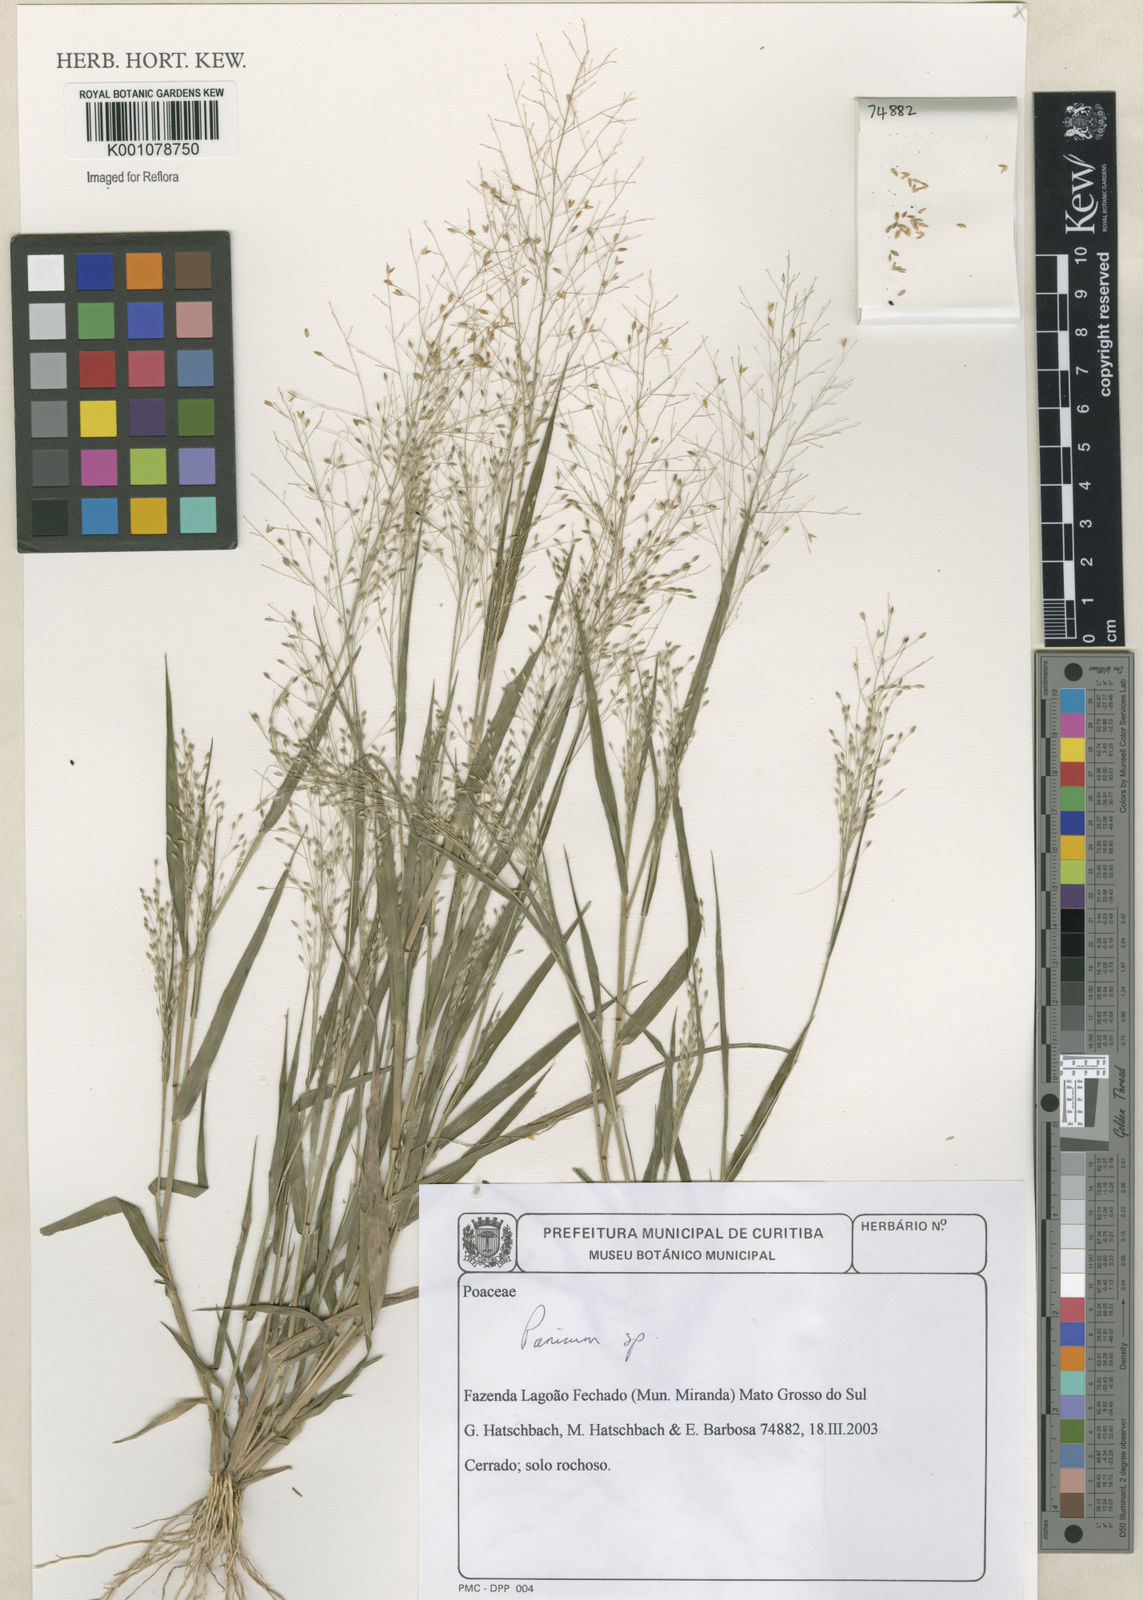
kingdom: Plantae
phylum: Tracheophyta
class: Liliopsida
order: Poales
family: Poaceae
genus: Panicum
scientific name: Panicum
